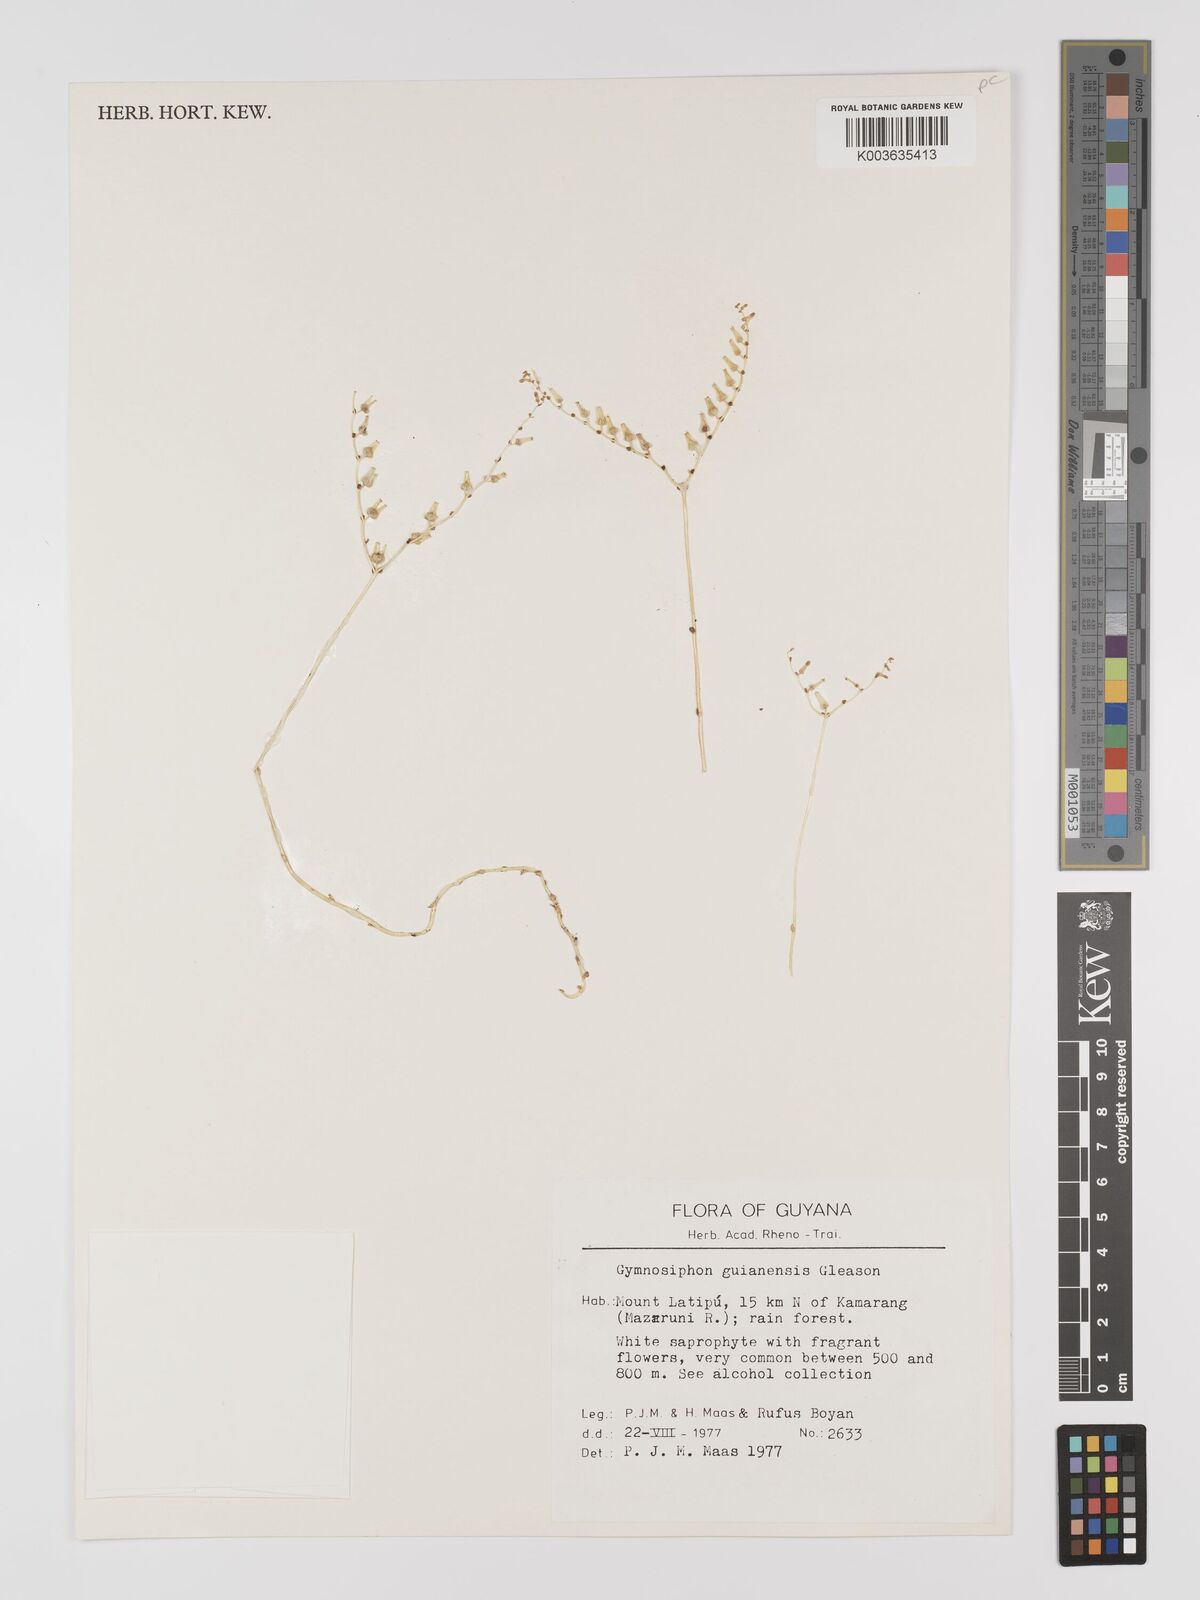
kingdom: Plantae
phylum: Tracheophyta
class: Liliopsida
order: Dioscoreales
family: Burmanniaceae
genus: Gymnosiphon
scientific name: Gymnosiphon guianensis
